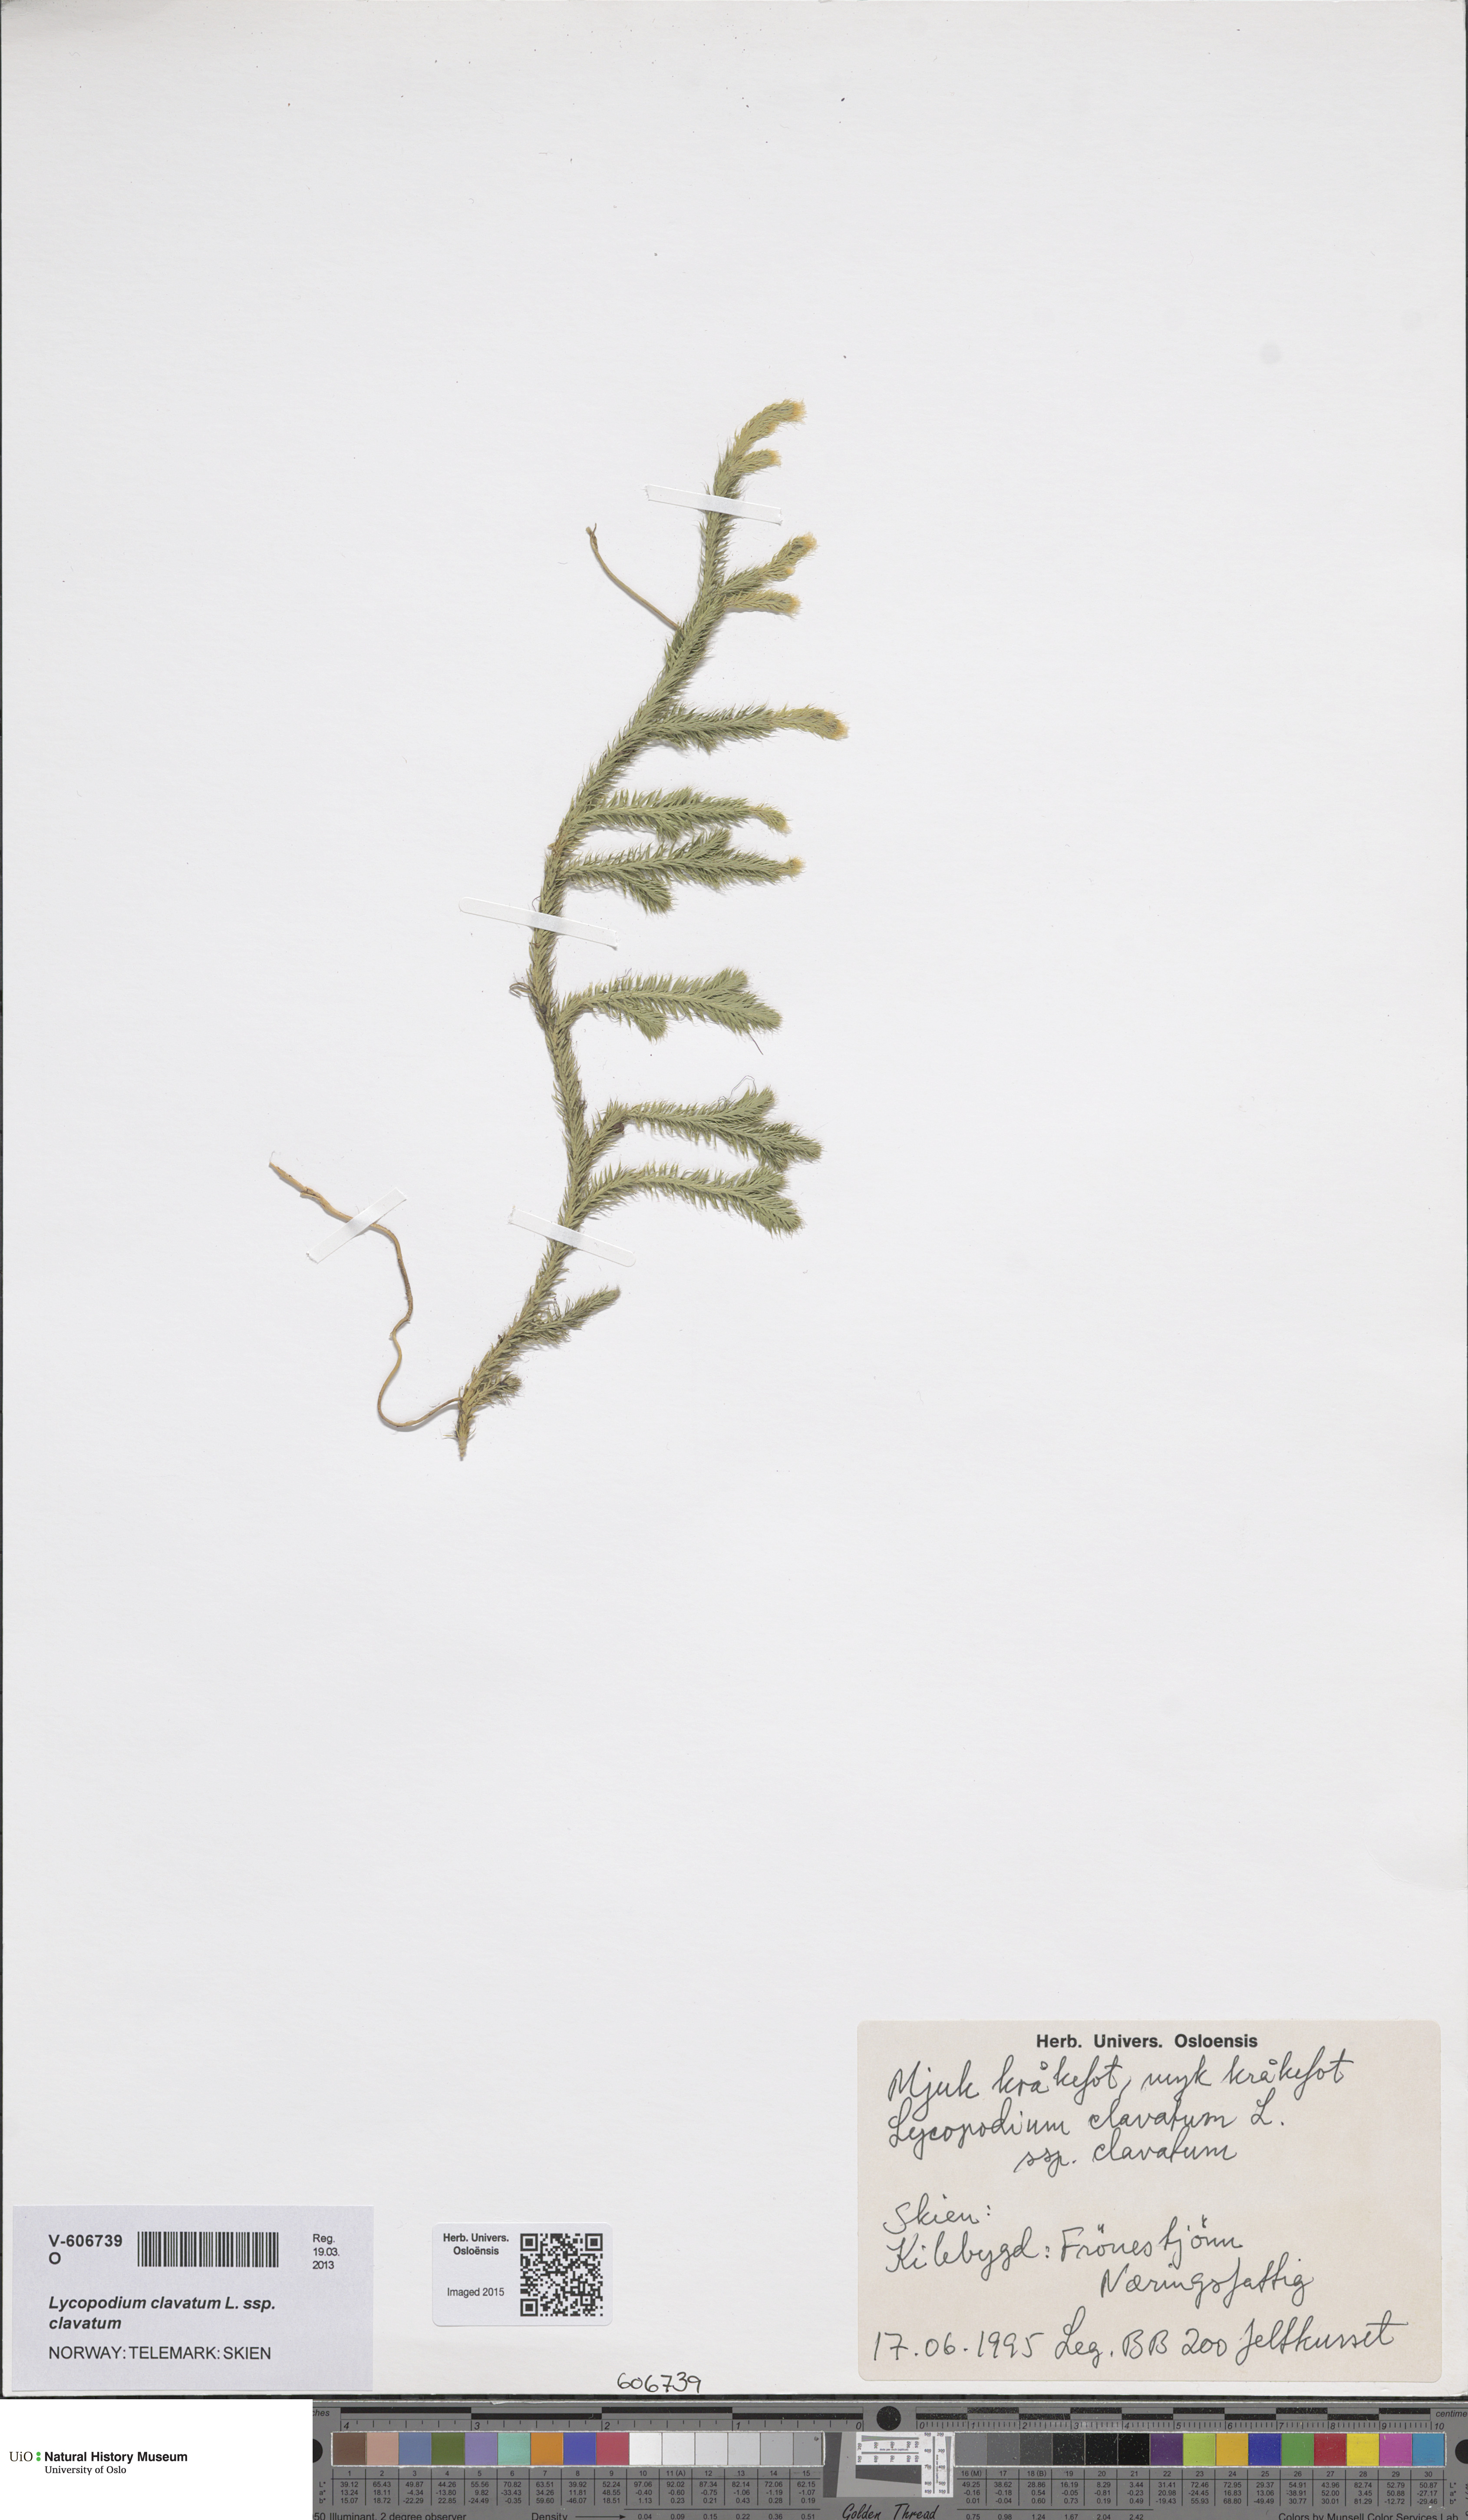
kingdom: Plantae
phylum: Tracheophyta
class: Lycopodiopsida
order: Lycopodiales
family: Lycopodiaceae
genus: Lycopodium
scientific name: Lycopodium clavatum
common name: Stag's-horn clubmoss
